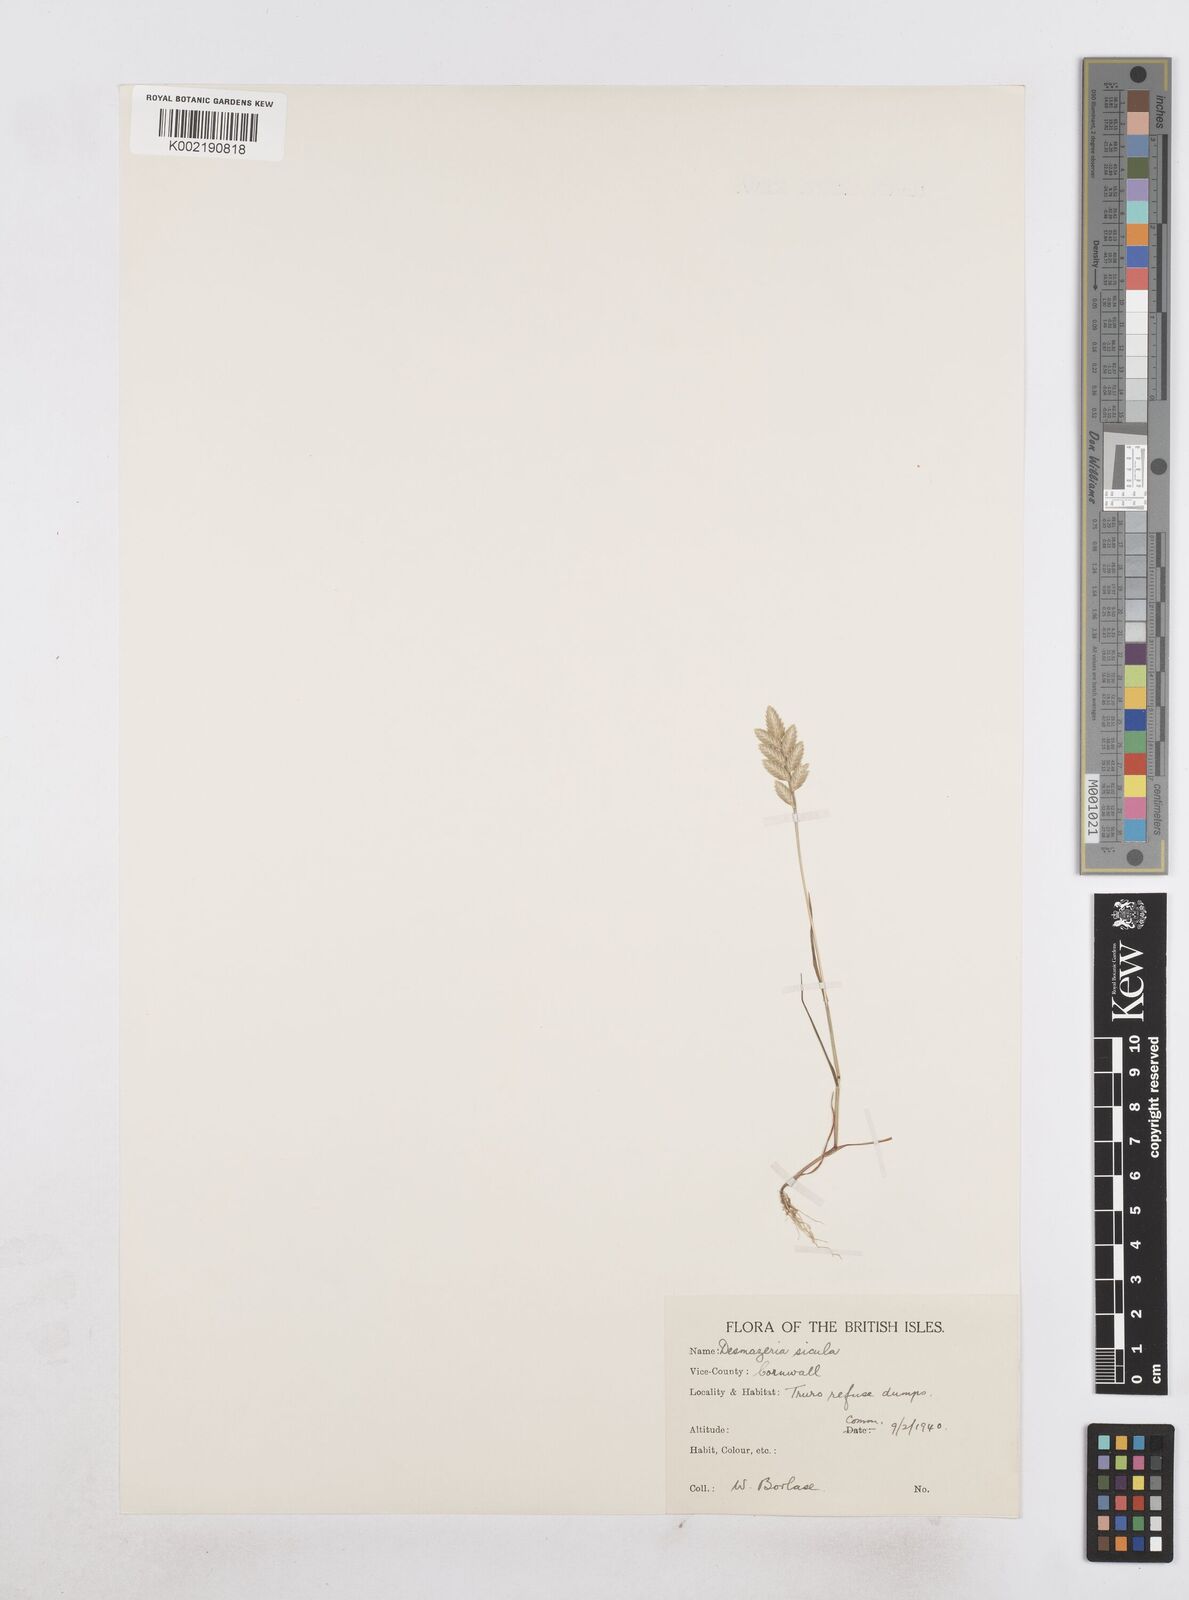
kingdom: Plantae
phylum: Tracheophyta
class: Liliopsida
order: Poales
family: Poaceae
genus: Desmazeria
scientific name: Desmazeria sicula
